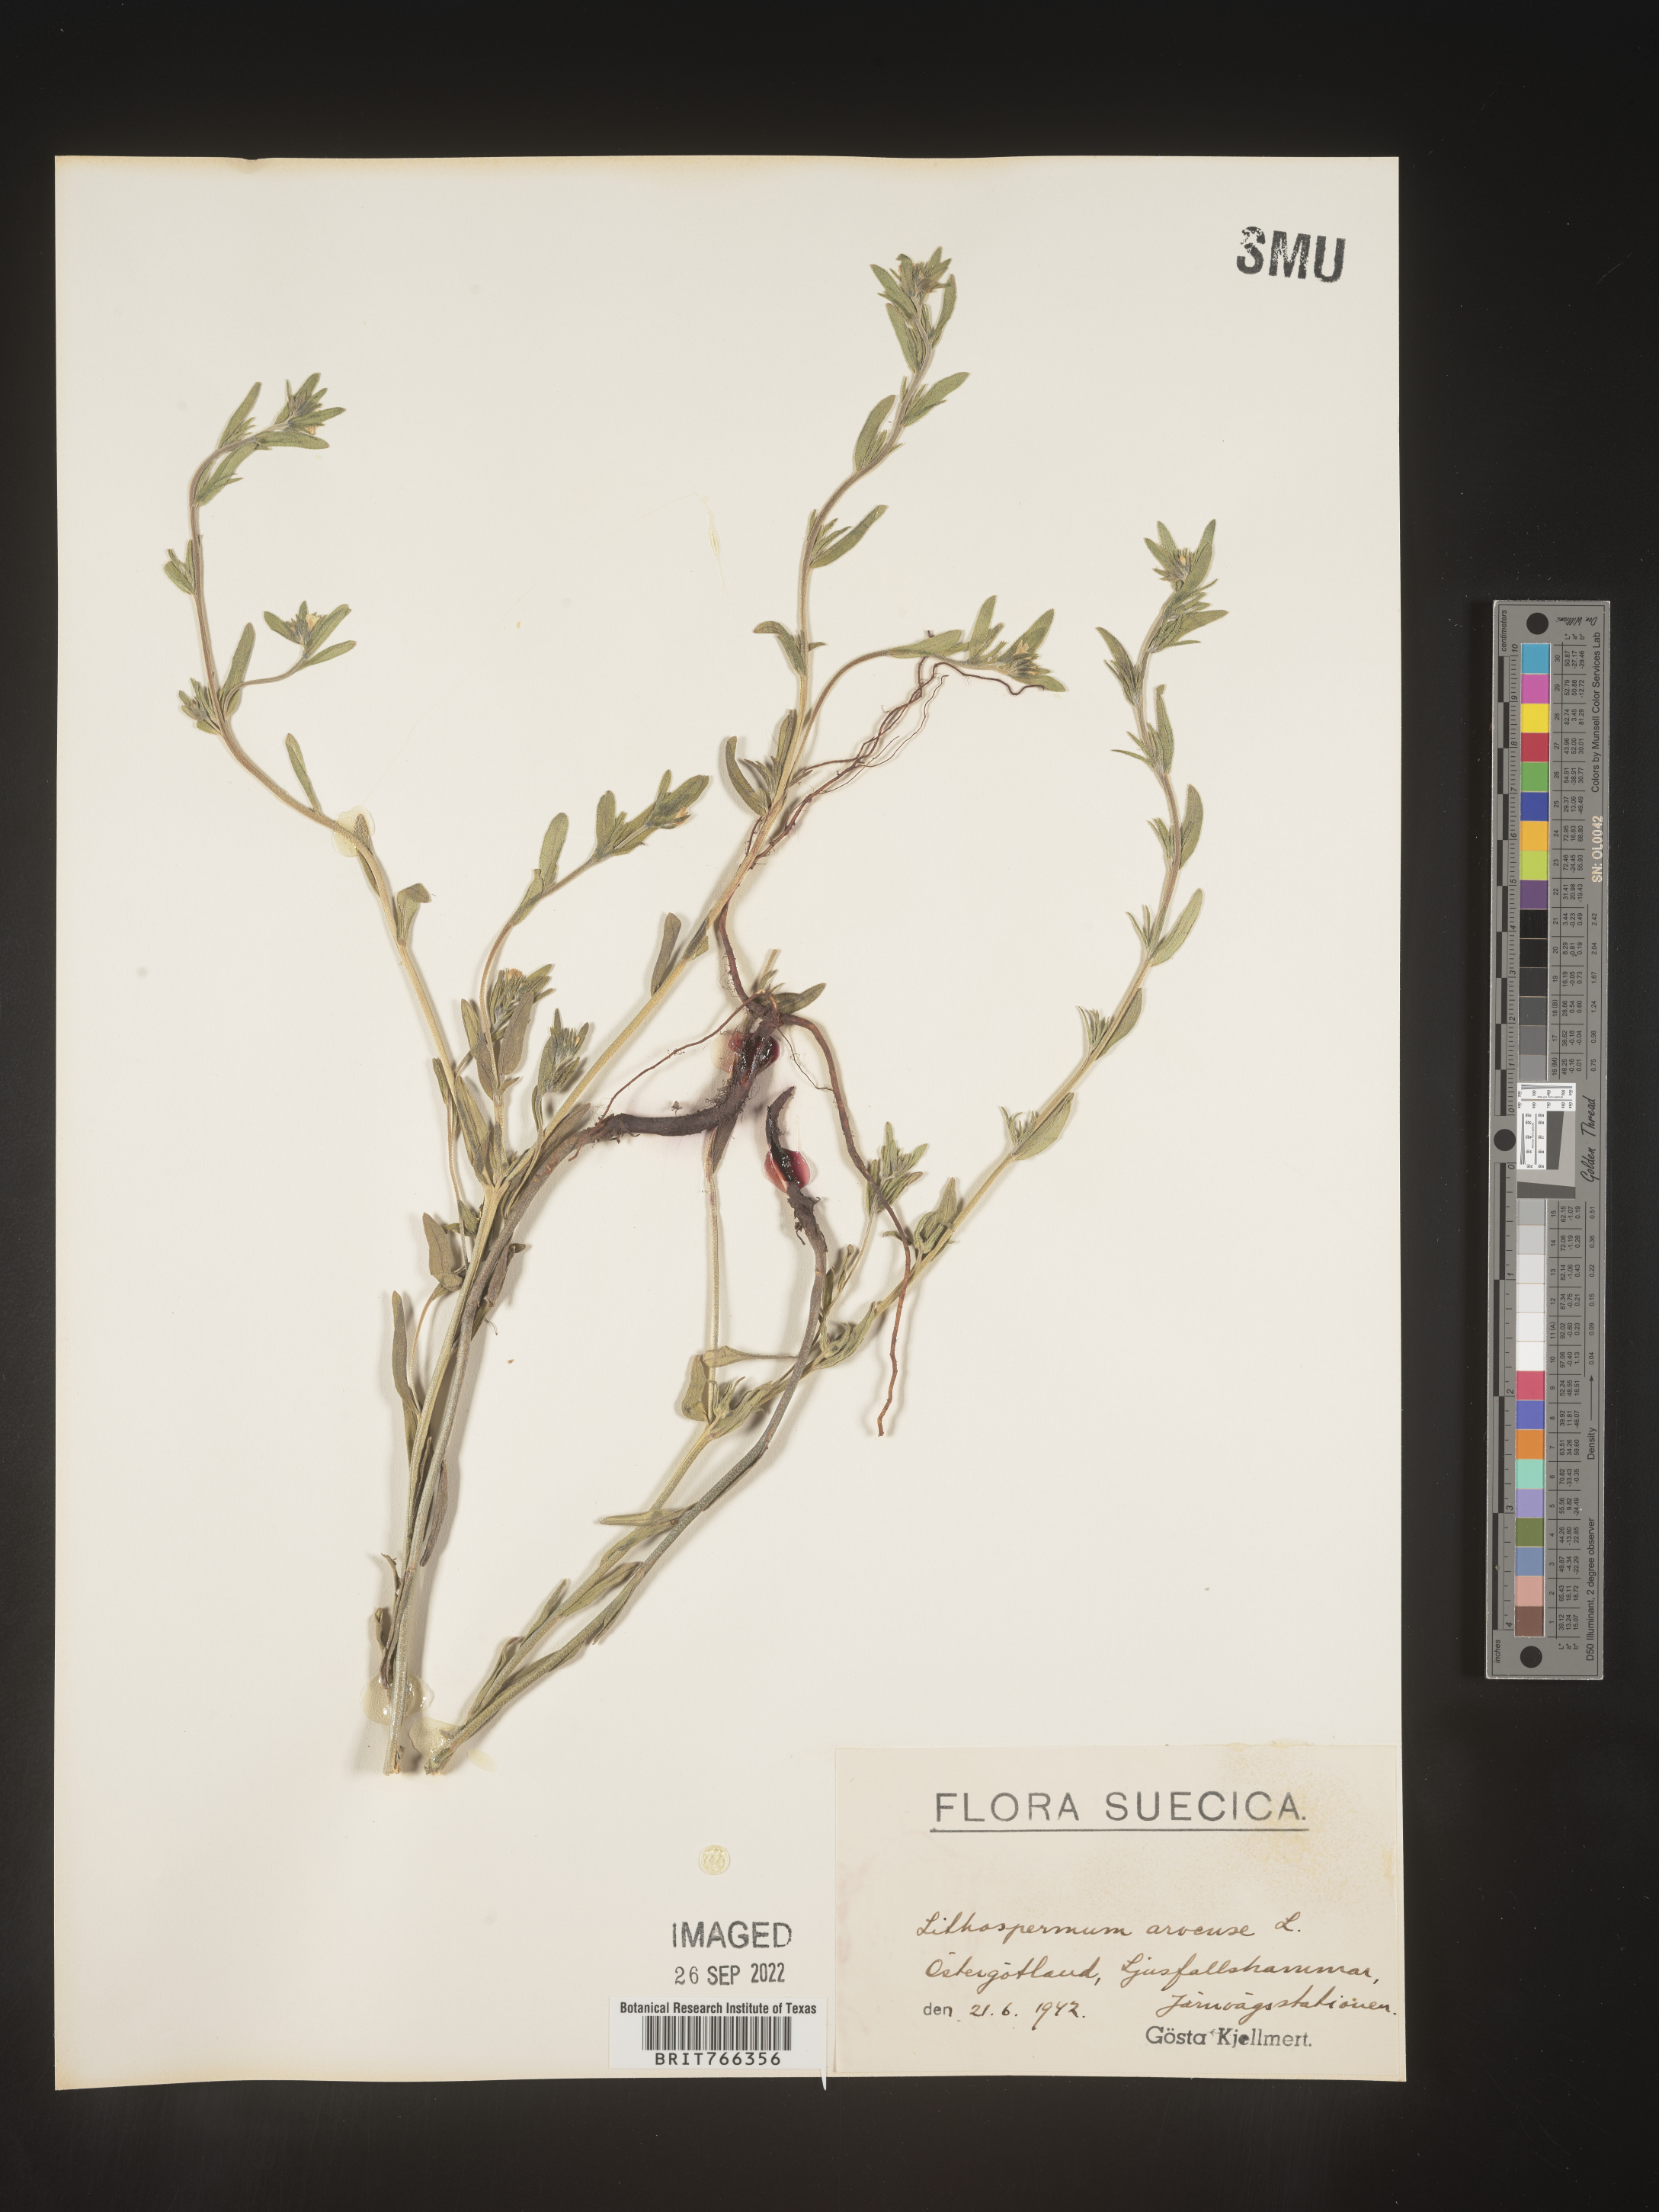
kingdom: Plantae
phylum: Tracheophyta
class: Magnoliopsida
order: Boraginales
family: Boraginaceae
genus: Buglossoides
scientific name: Buglossoides
